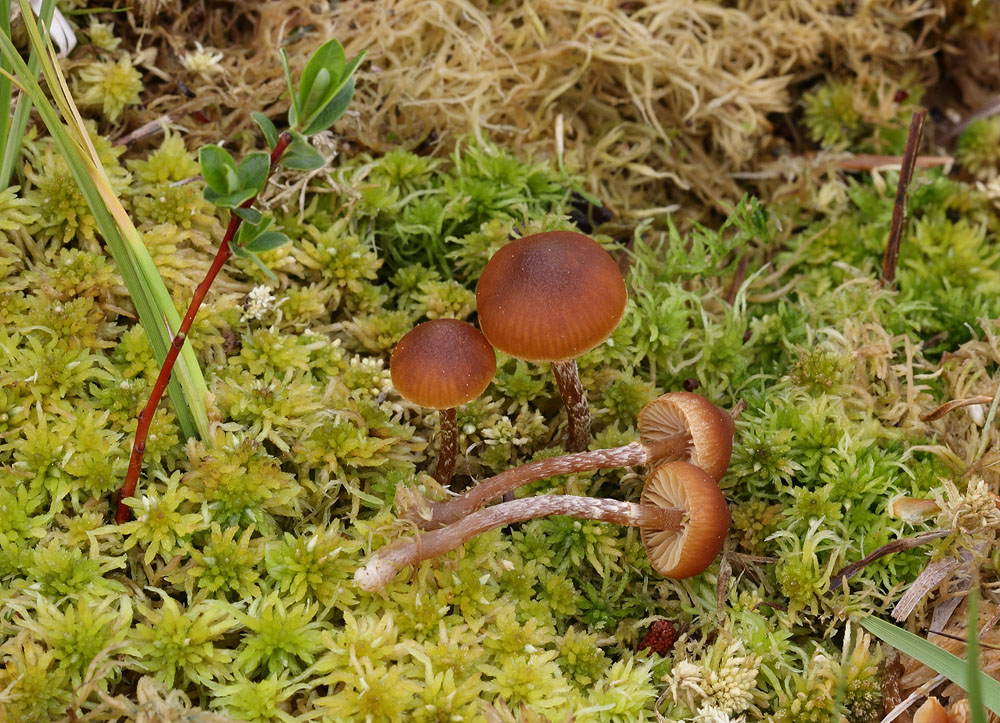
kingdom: Fungi
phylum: Basidiomycota
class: Agaricomycetes
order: Agaricales
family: Hymenogastraceae
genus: Galerina
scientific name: Galerina paludosa
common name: mose-hjelmhat
